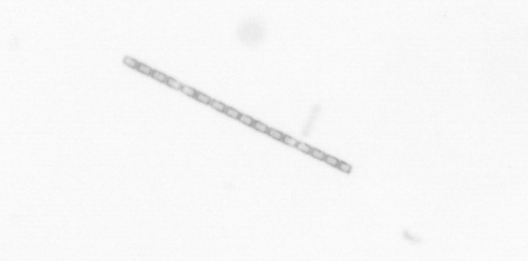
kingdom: Chromista
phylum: Ochrophyta
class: Bacillariophyceae
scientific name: Bacillariophyceae
